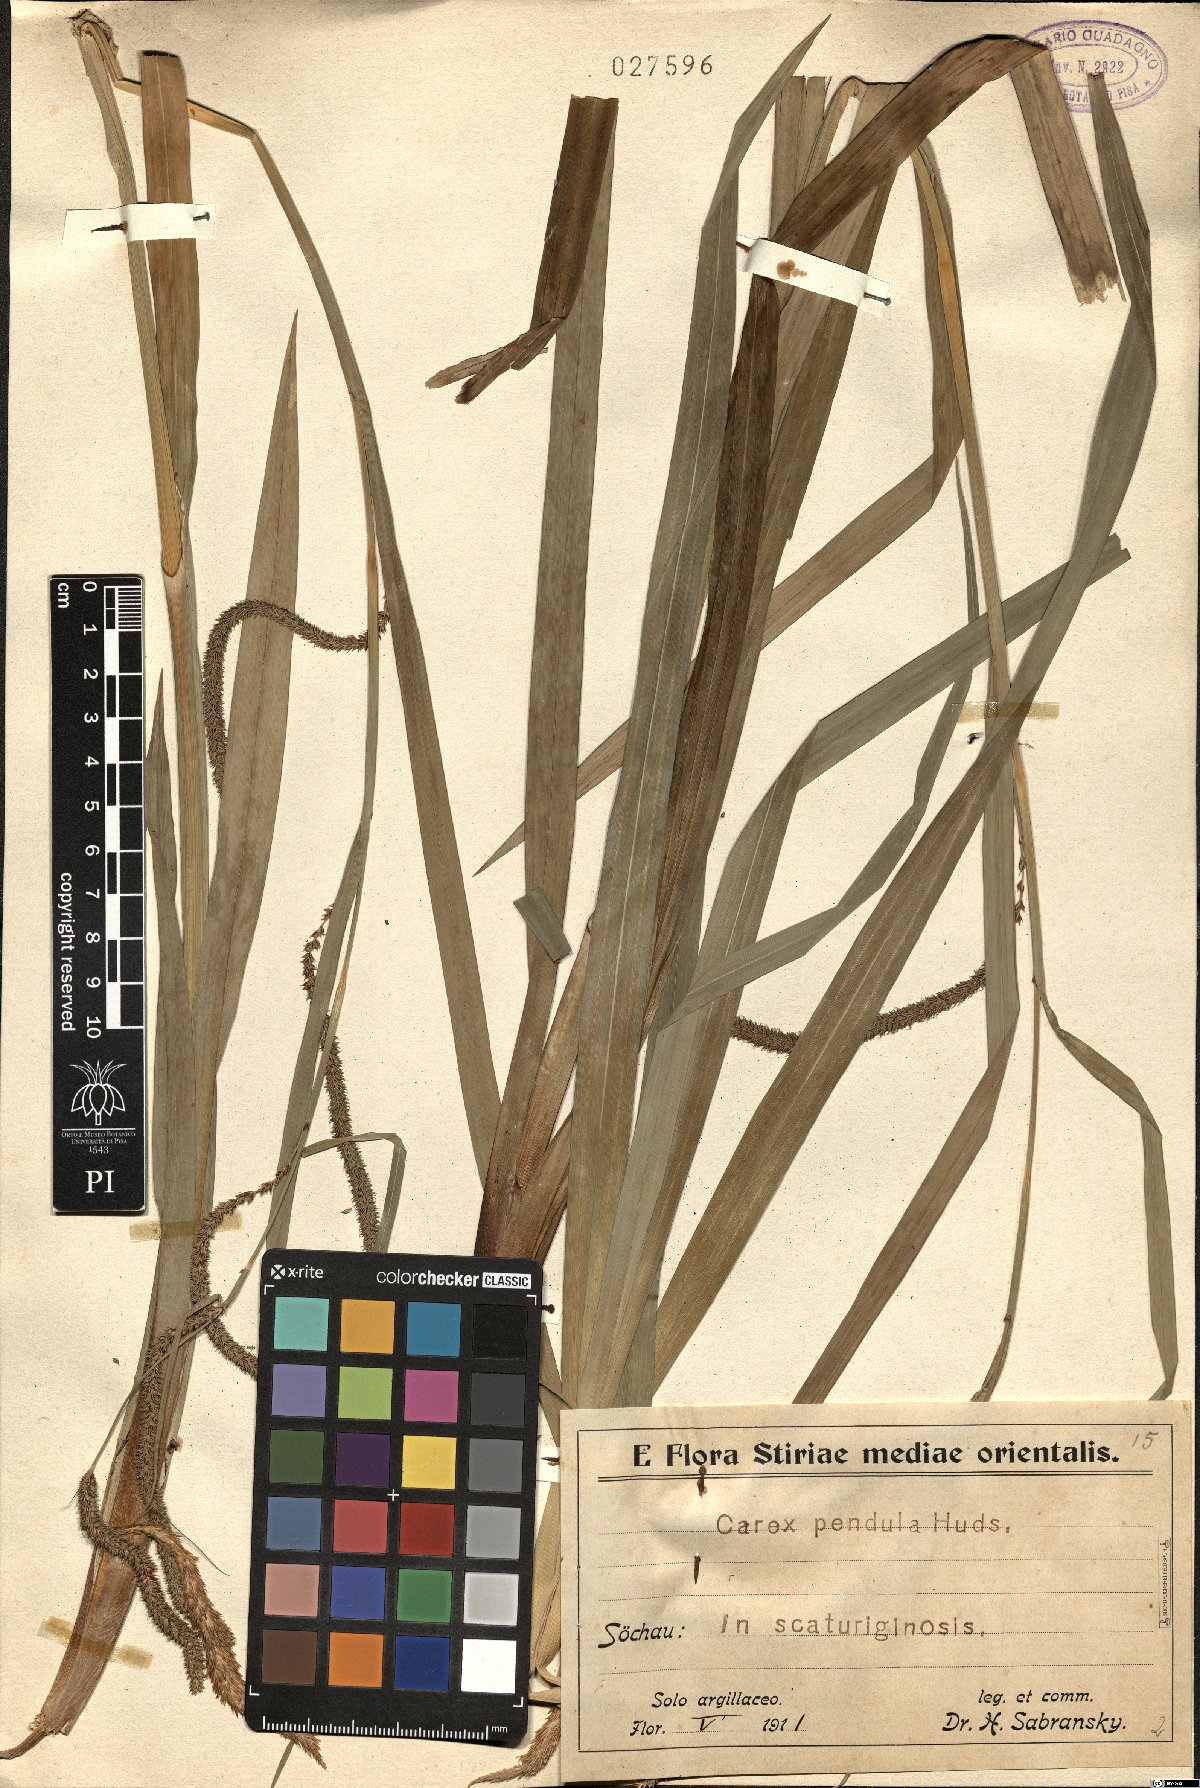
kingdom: Plantae
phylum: Tracheophyta
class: Liliopsida
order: Poales
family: Cyperaceae
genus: Carex
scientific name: Carex pendula
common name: Pendulous sedge
